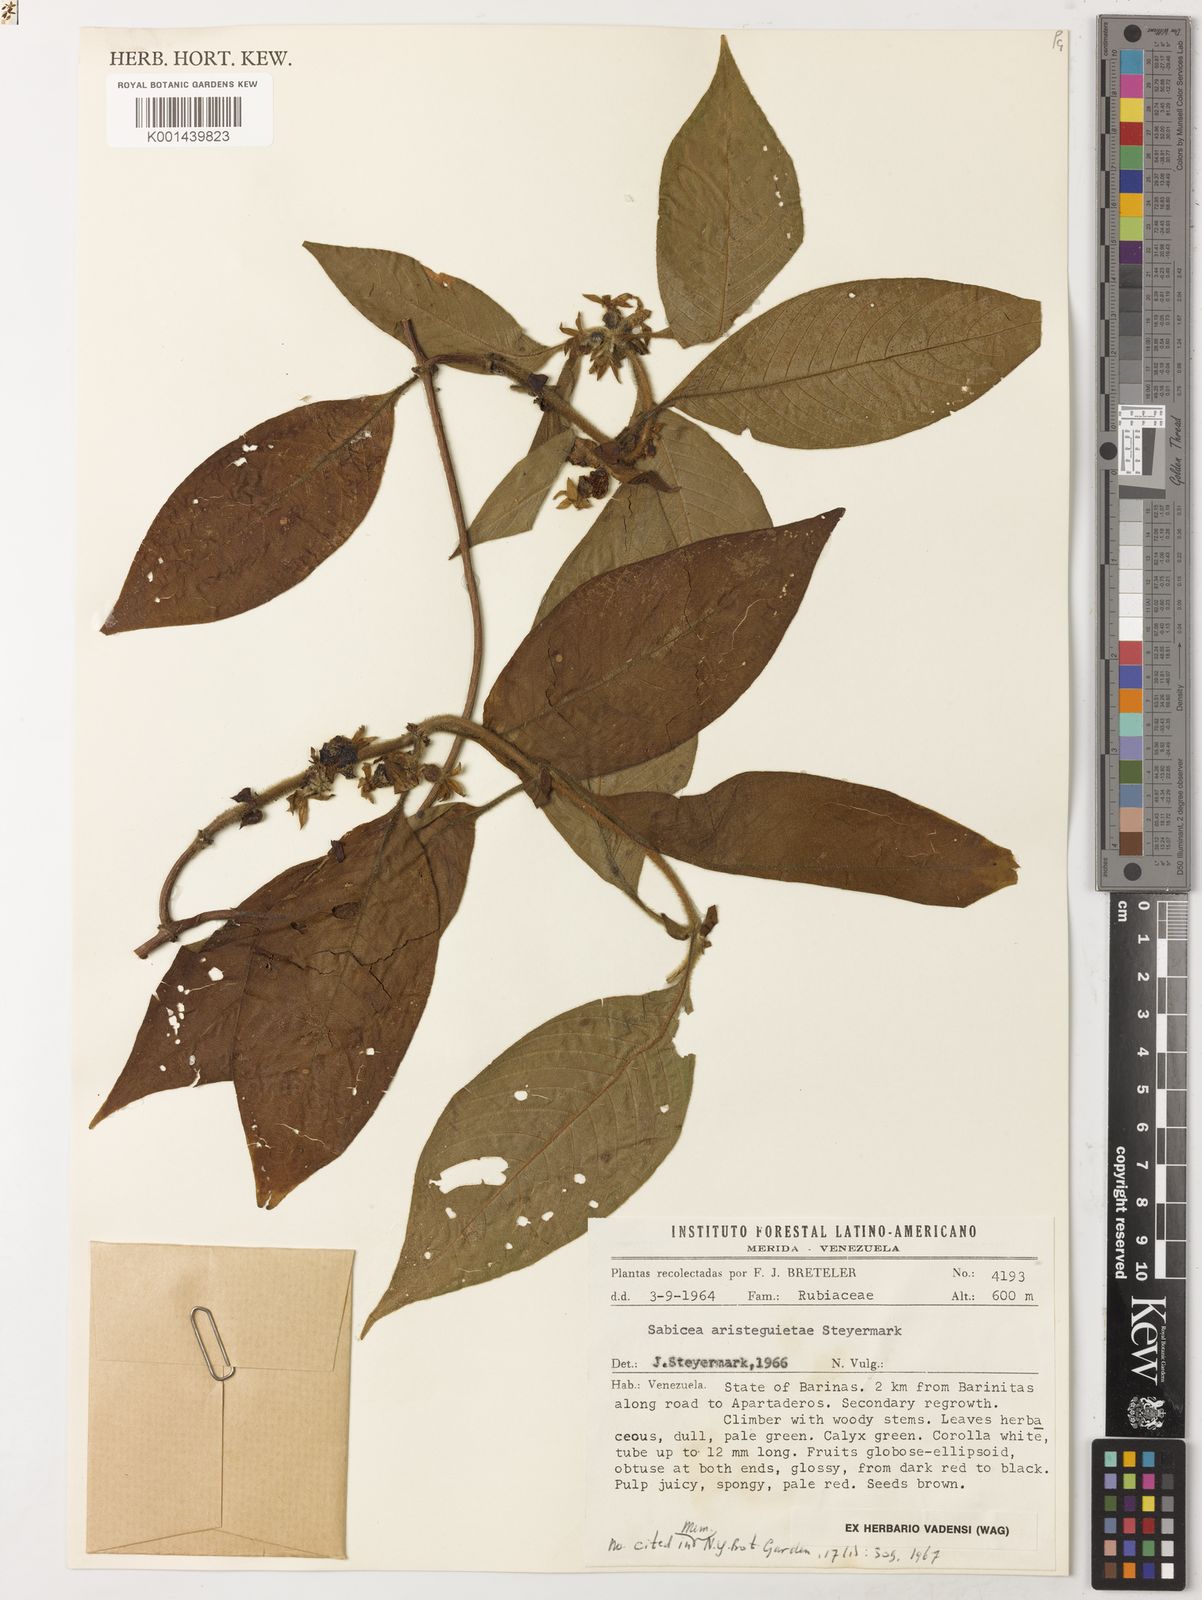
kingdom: Plantae
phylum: Tracheophyta
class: Magnoliopsida
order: Gentianales
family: Rubiaceae
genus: Sabicea
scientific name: Sabicea aristeguietae
